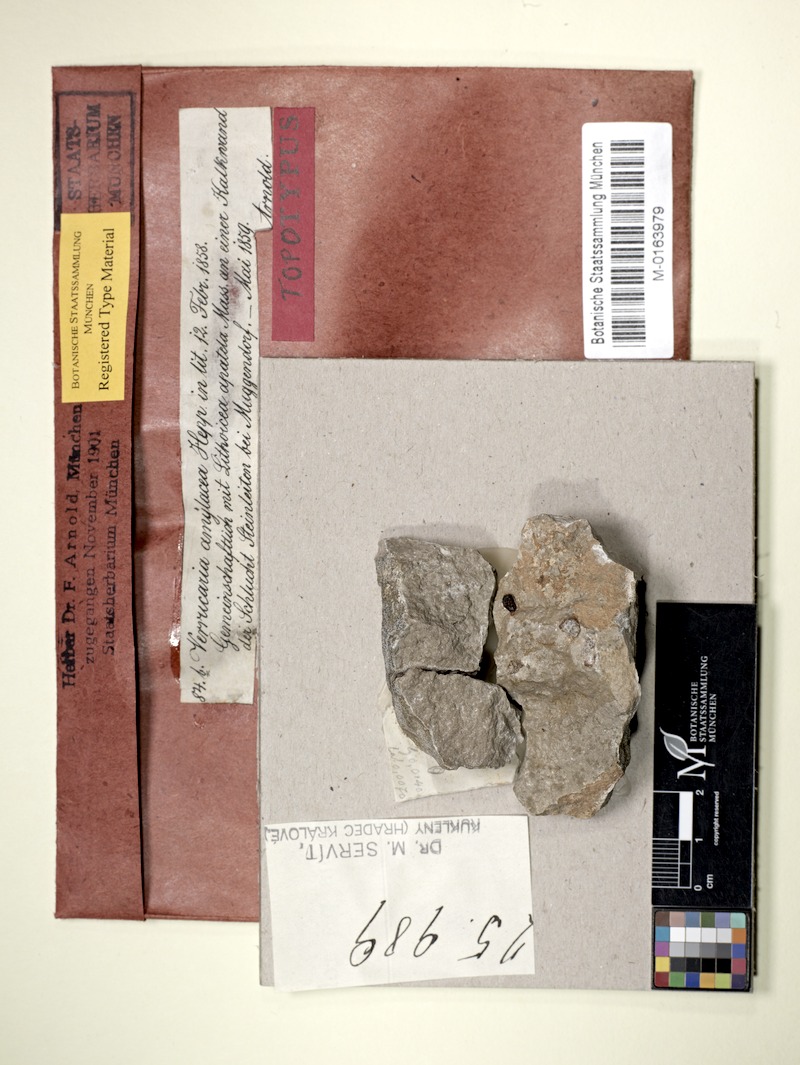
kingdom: Fungi
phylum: Ascomycota
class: Eurotiomycetes
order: Verrucariales
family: Verrucariaceae
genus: Verrucaria
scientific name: Verrucaria amylacea
